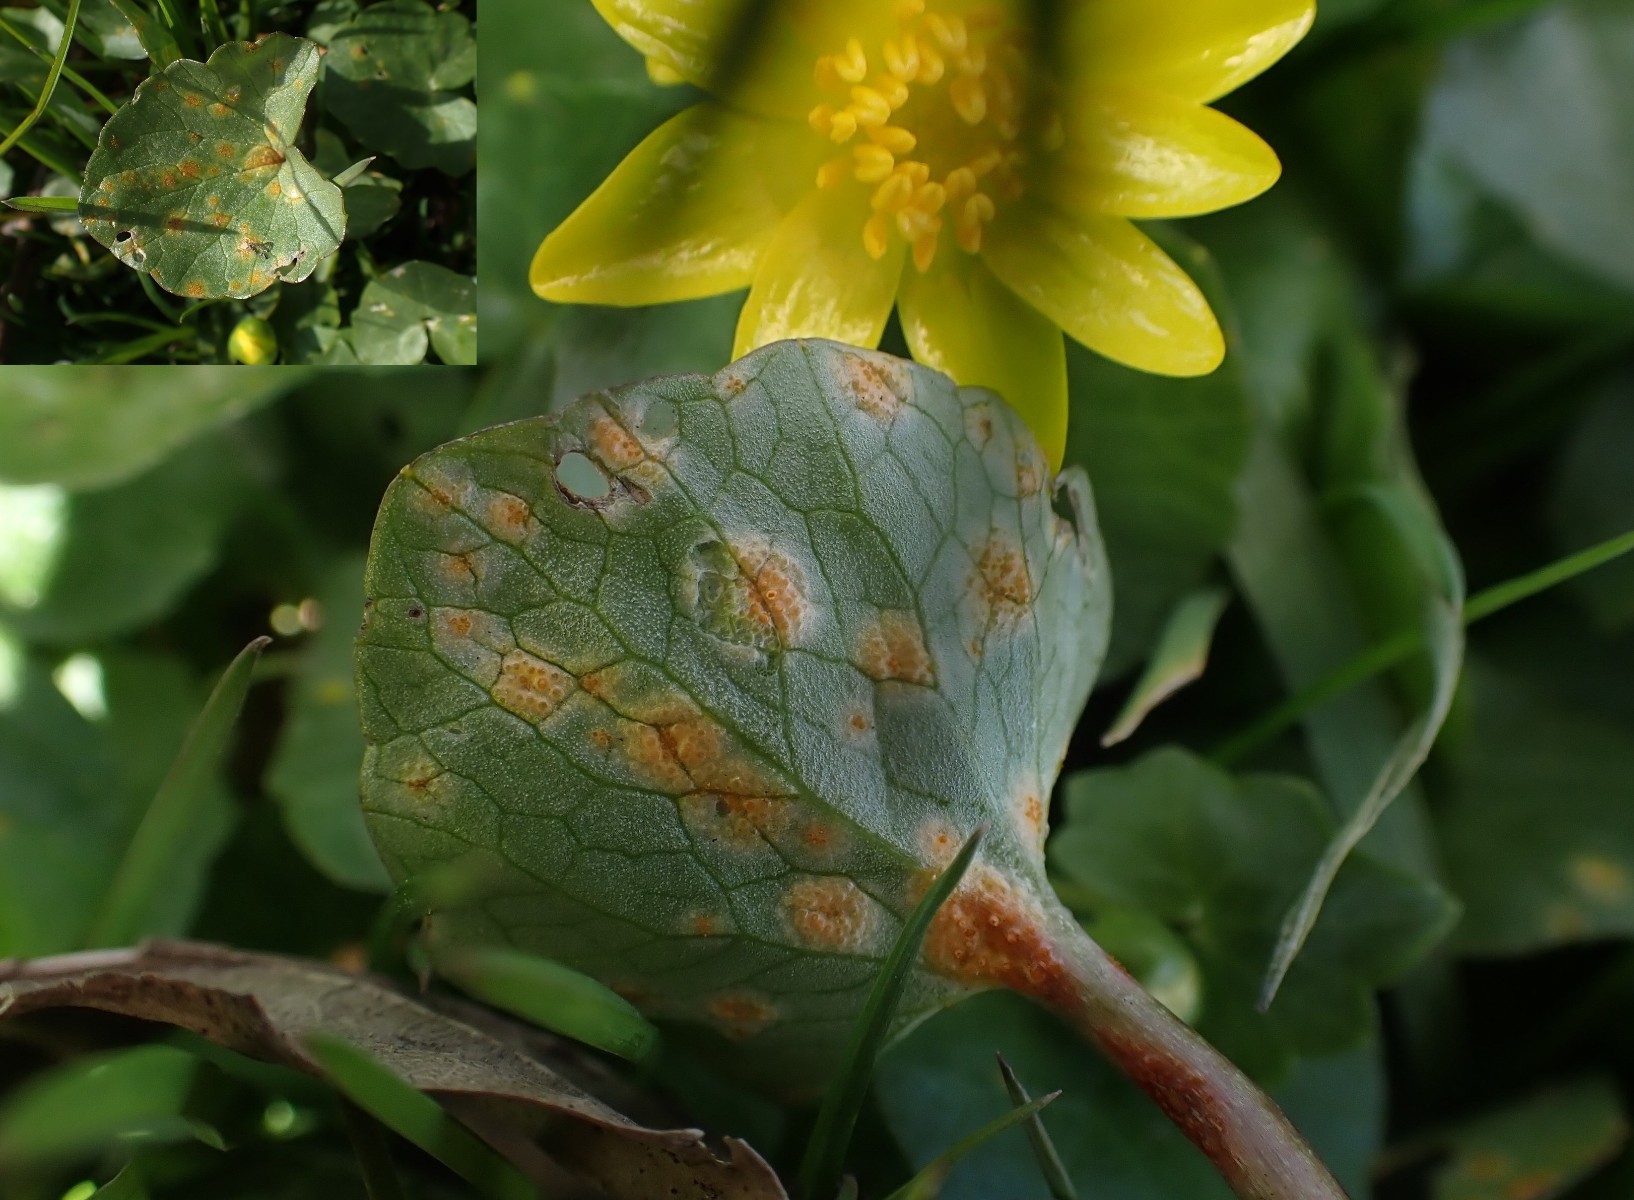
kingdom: Fungi
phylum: Basidiomycota
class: Pucciniomycetes
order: Pucciniales
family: Pucciniaceae
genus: Uromyces
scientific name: Uromyces dactylidis
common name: ranunkel-encellerust
